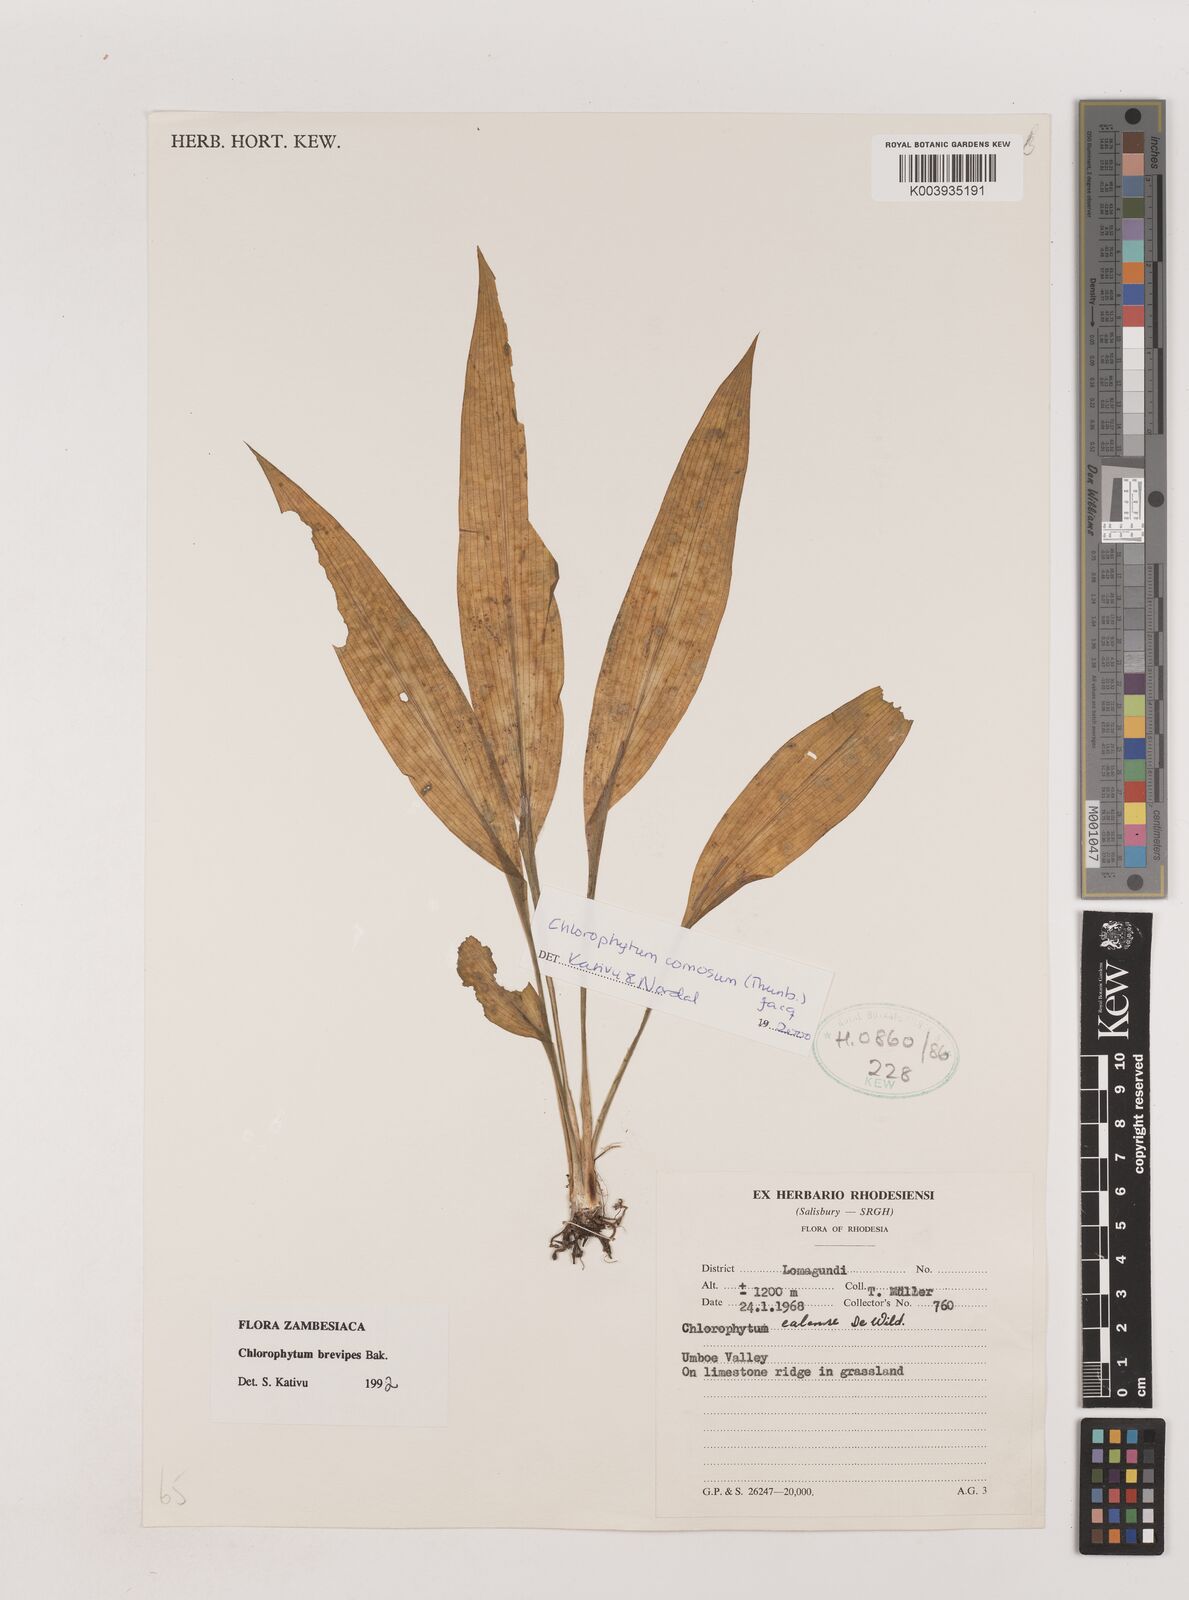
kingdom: Plantae
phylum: Tracheophyta
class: Liliopsida
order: Asparagales
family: Asparagaceae
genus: Chlorophytum
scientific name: Chlorophytum comosum
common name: Spider plant
